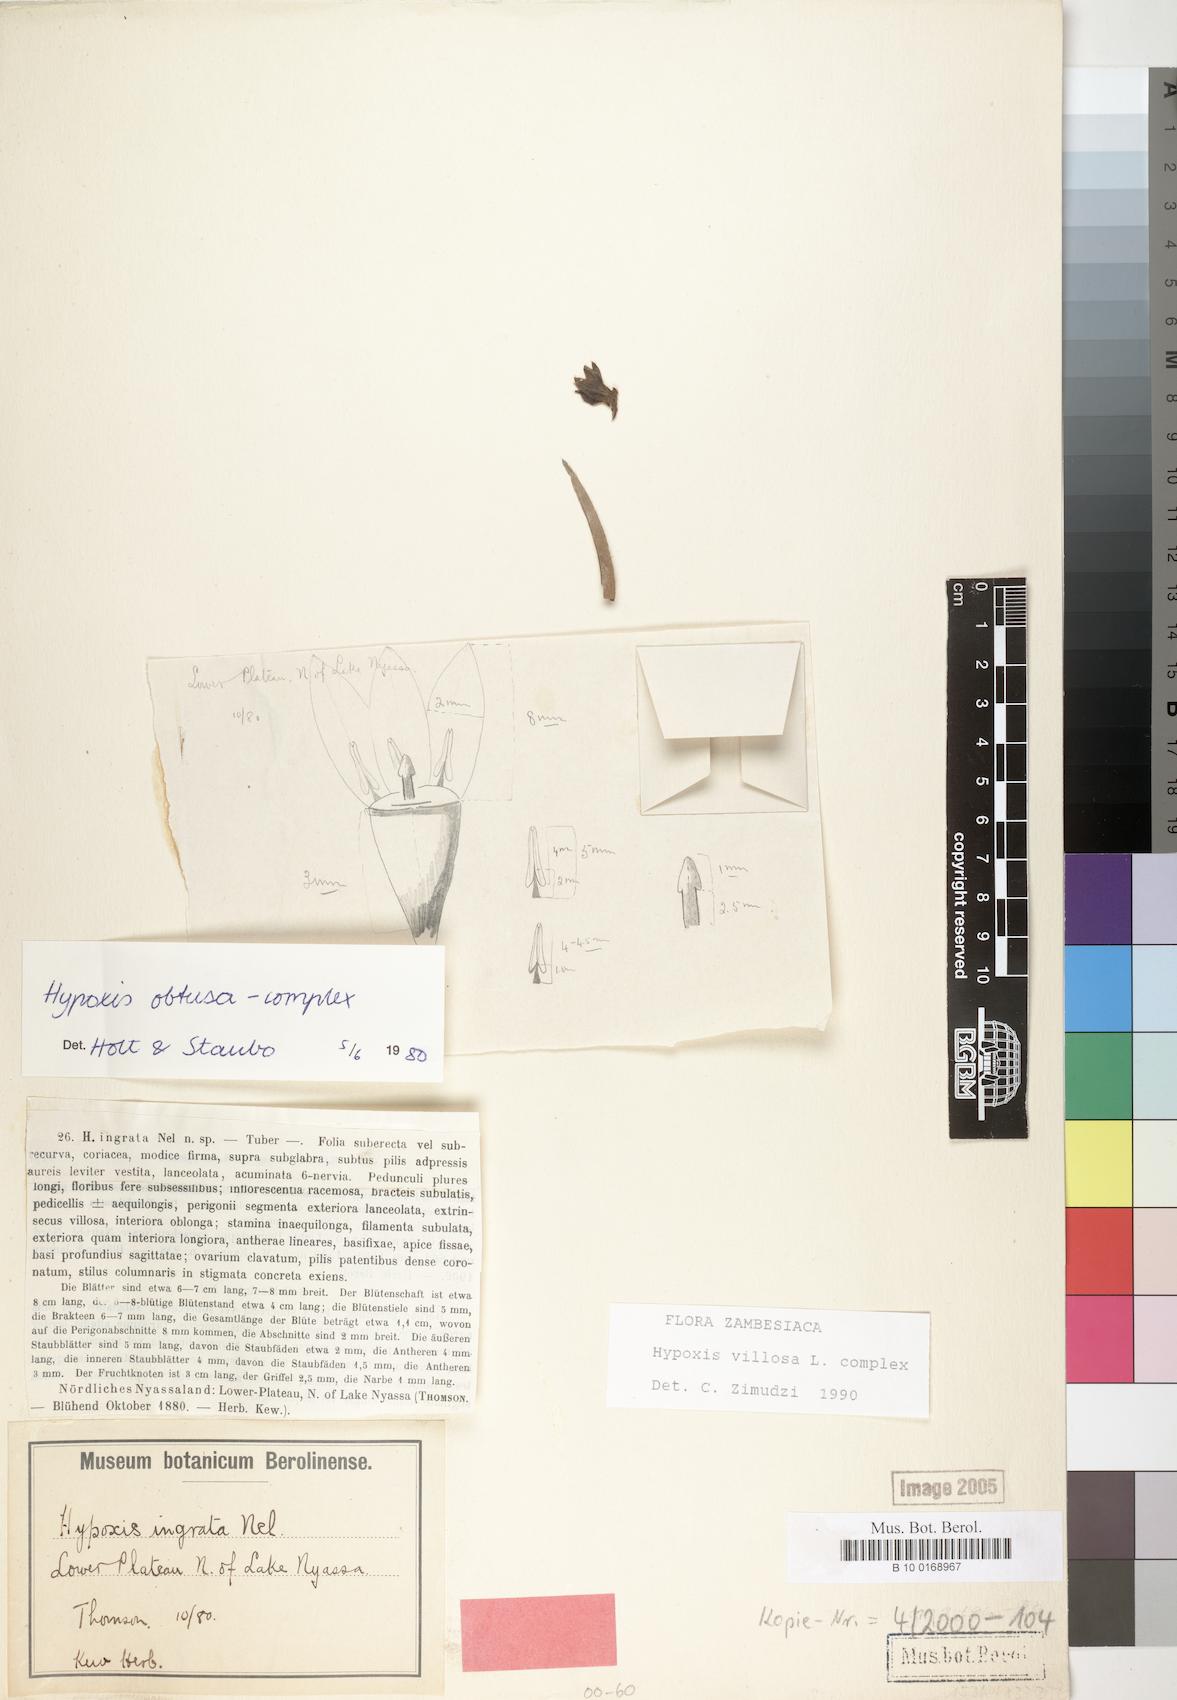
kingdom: Plantae
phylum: Tracheophyta
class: Liliopsida
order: Asparagales
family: Hypoxidaceae
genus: Hypoxis
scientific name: Hypoxis villosa
